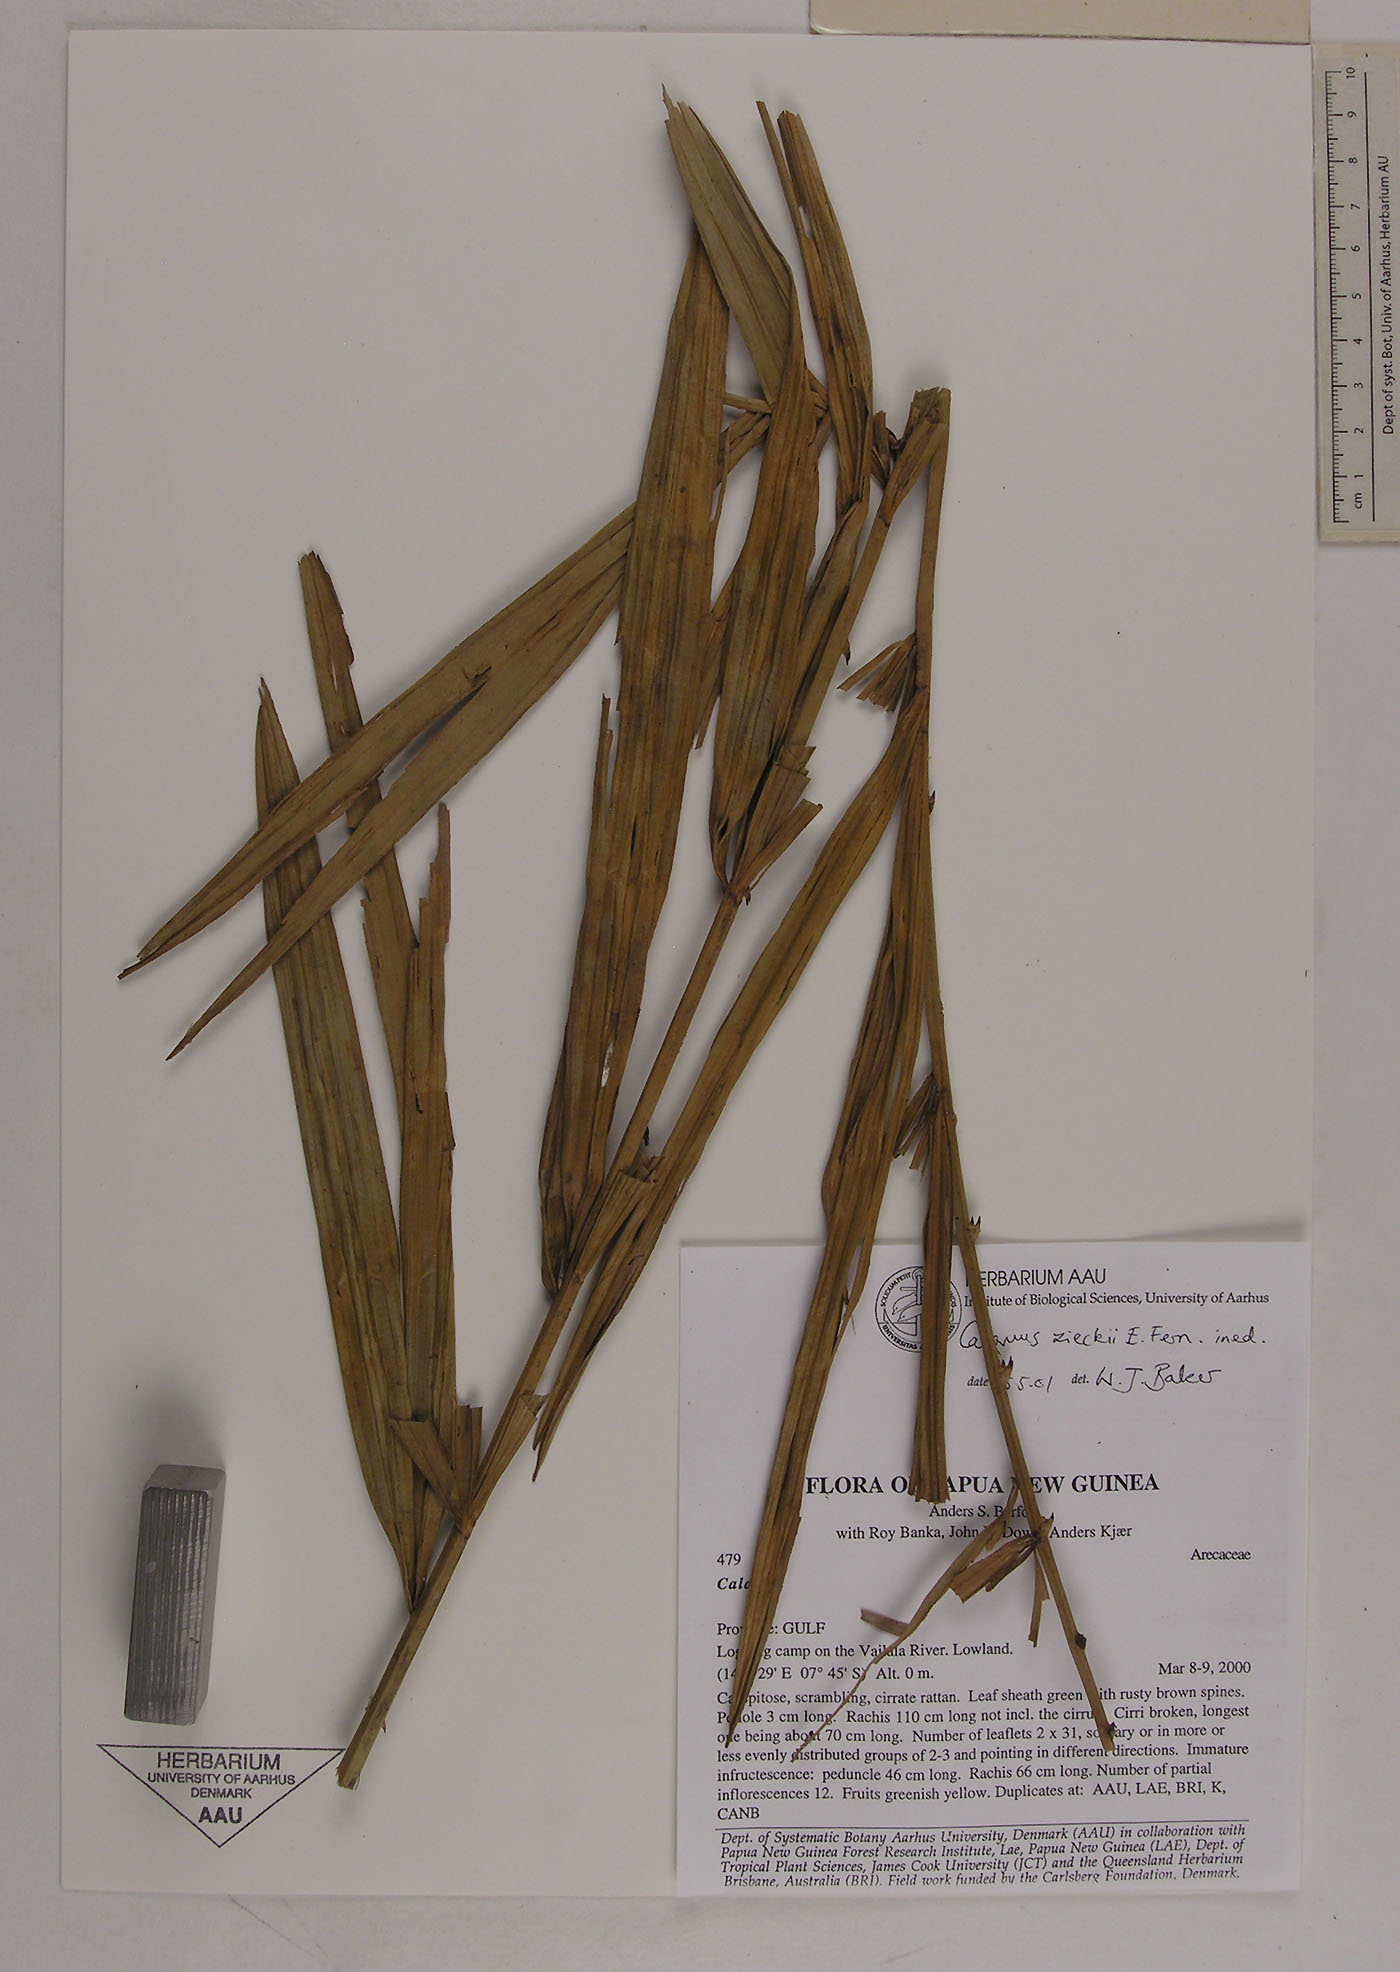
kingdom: Plantae
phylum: Tracheophyta
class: Liliopsida
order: Arecales
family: Arecaceae
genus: Calamus
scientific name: Calamus zieckii
